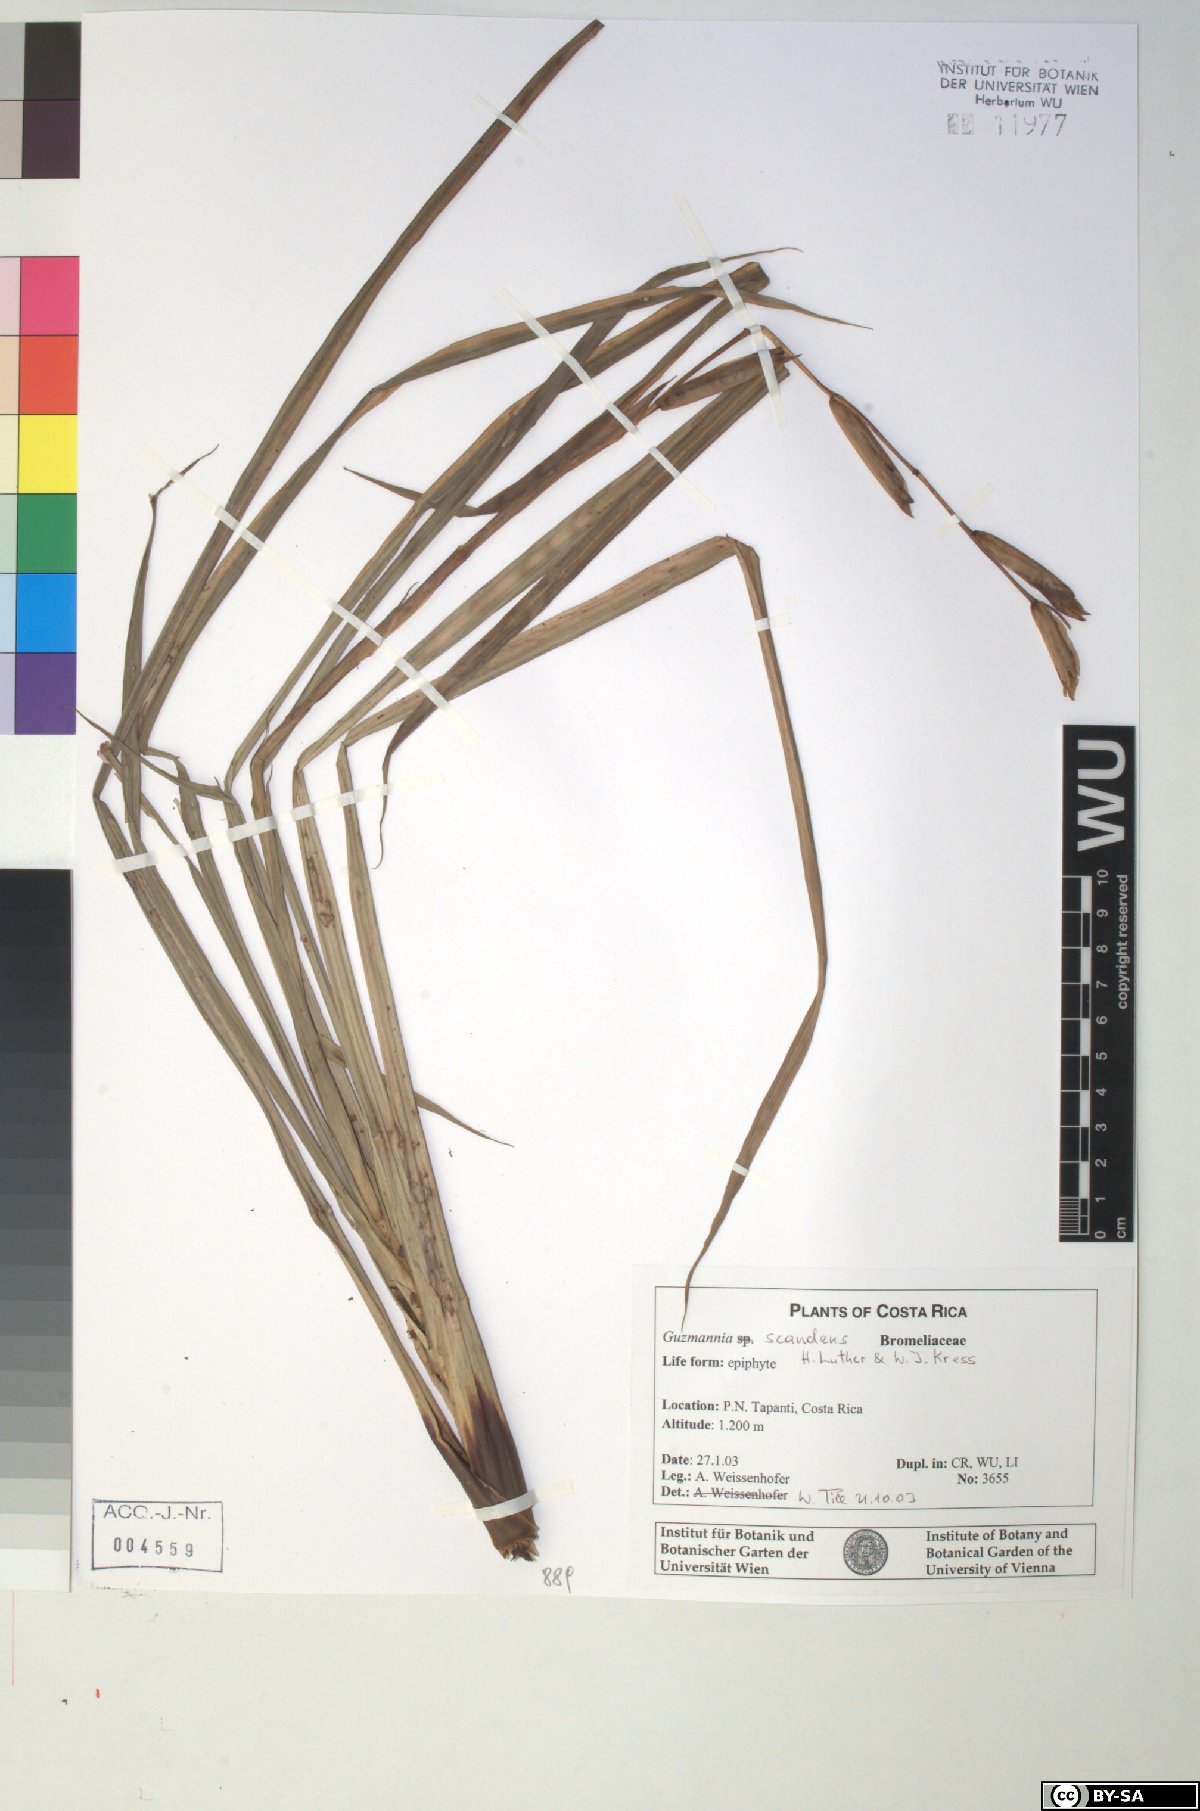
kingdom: Plantae
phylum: Tracheophyta
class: Liliopsida
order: Poales
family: Bromeliaceae
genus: Guzmania
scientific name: Guzmania scandens
